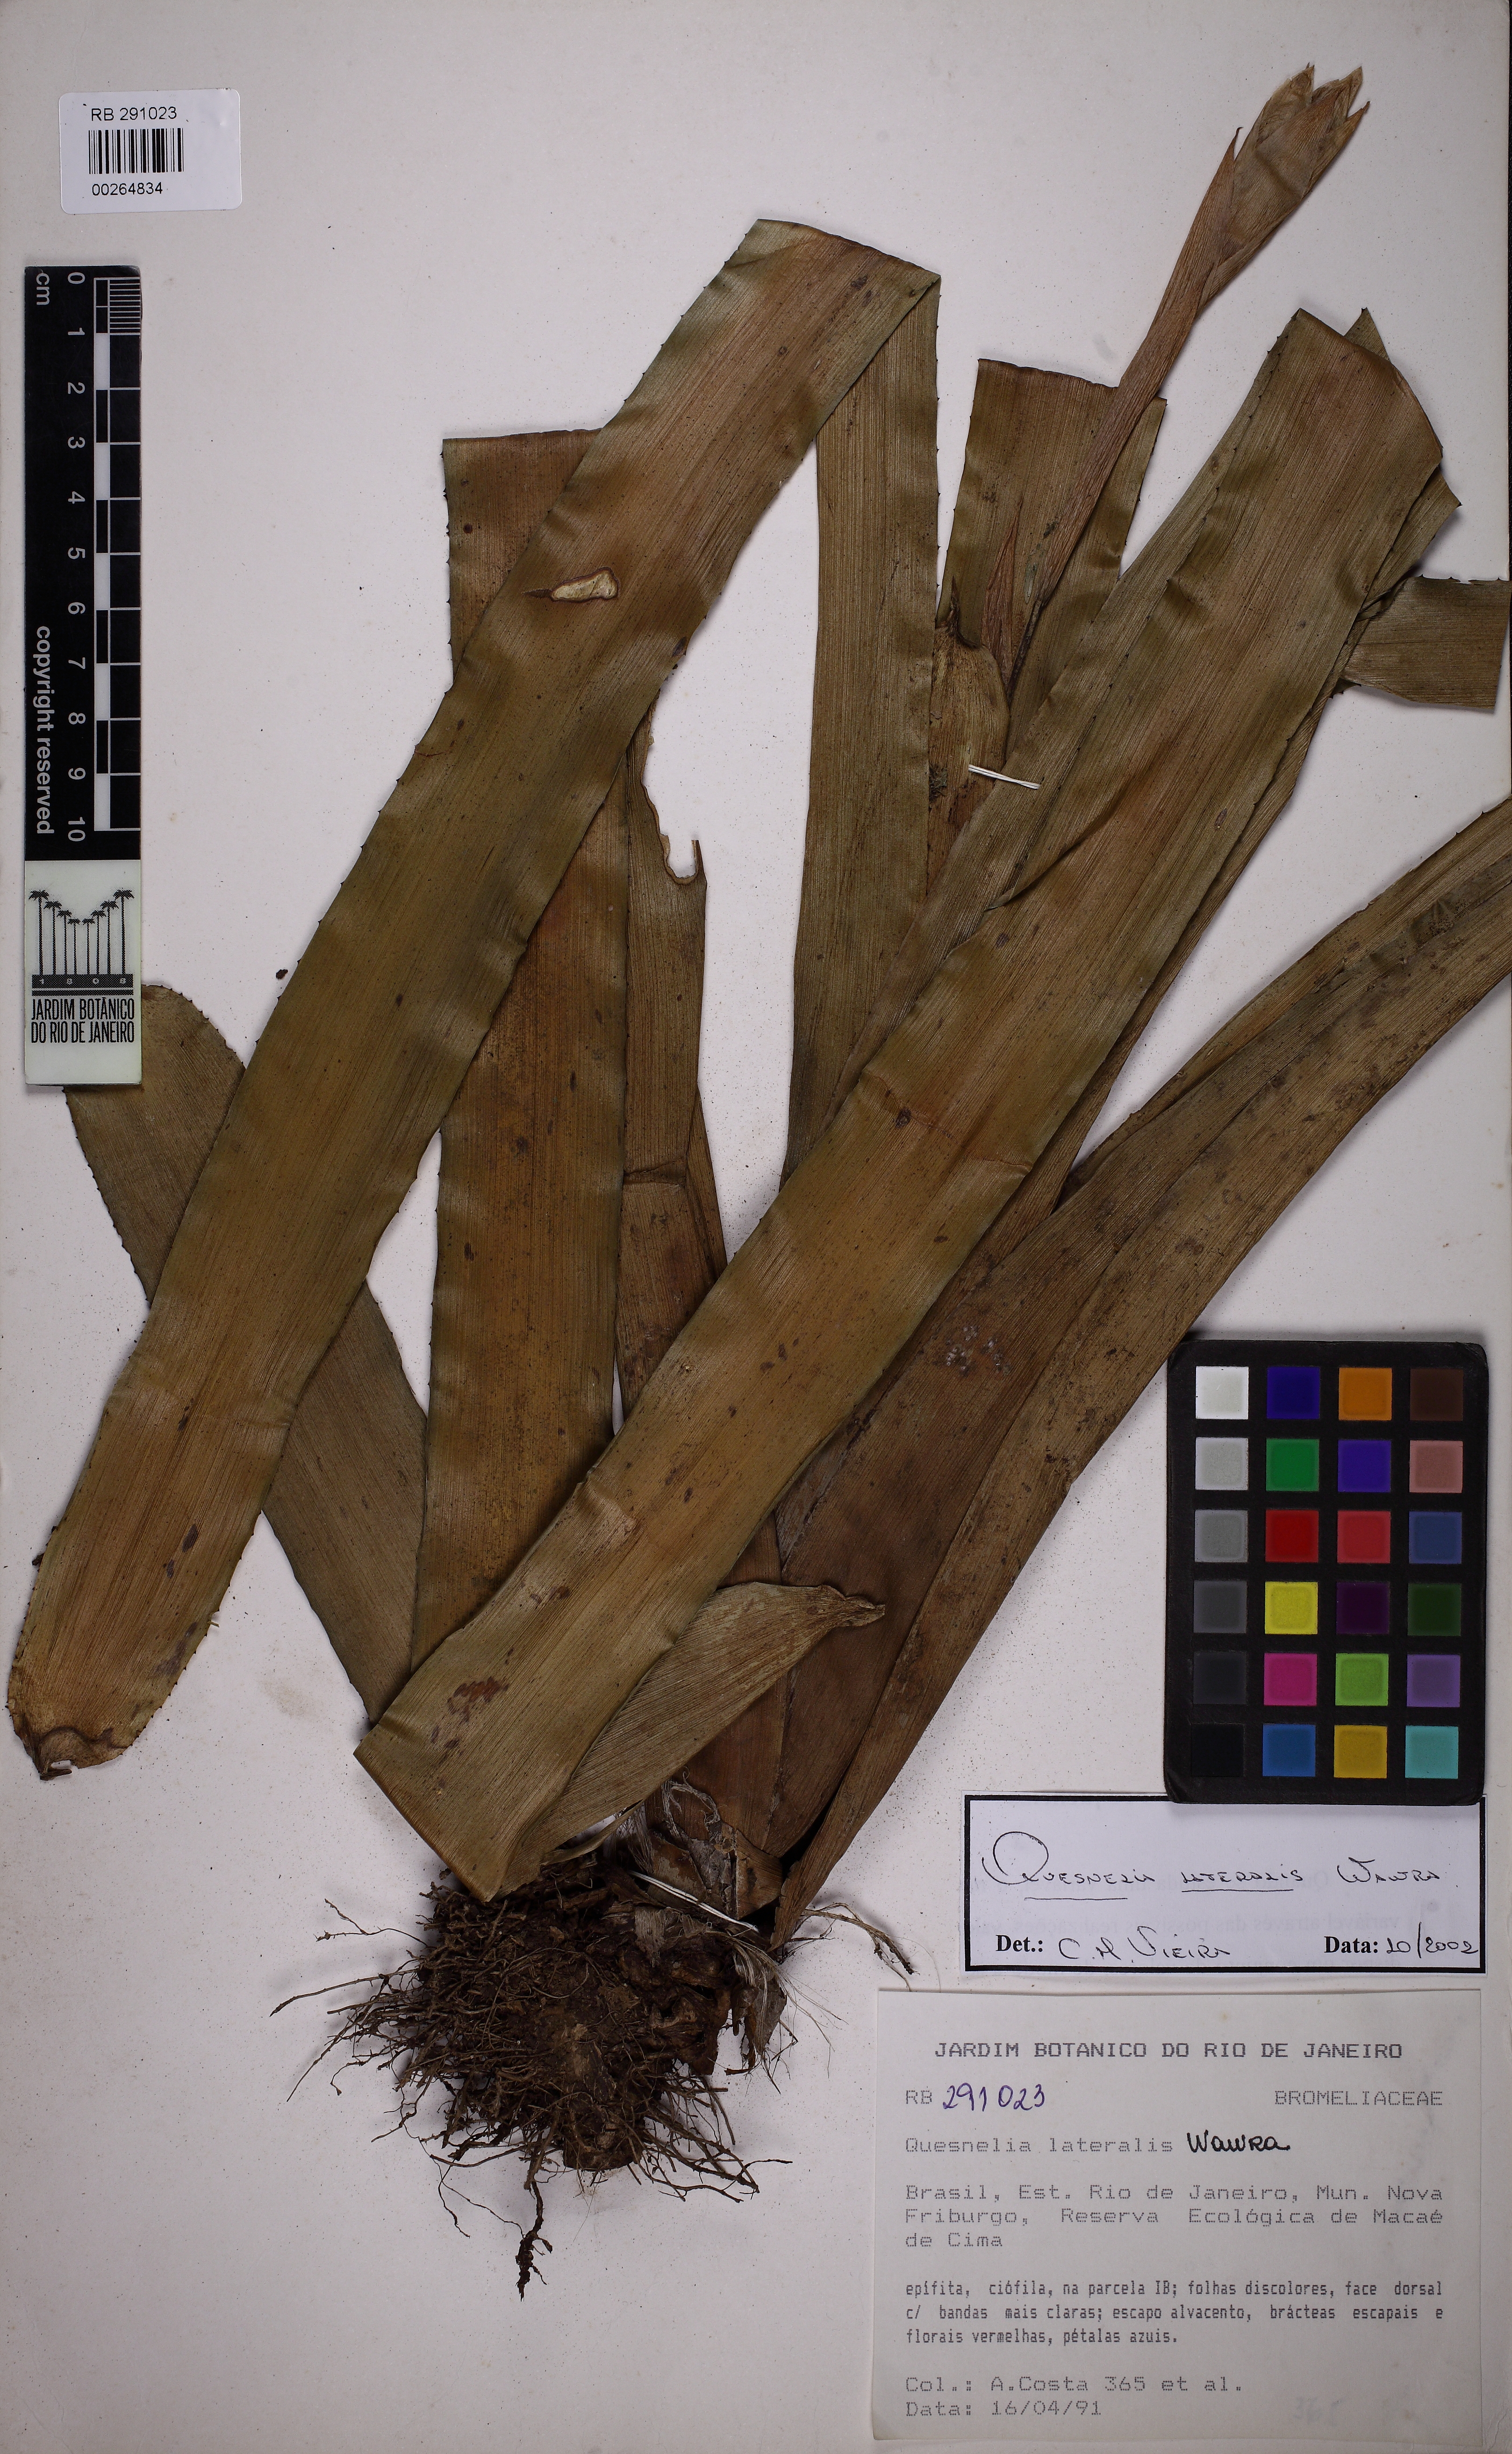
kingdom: Plantae
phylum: Tracheophyta
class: Liliopsida
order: Poales
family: Bromeliaceae
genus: Quesnelia
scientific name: Quesnelia lateralis
